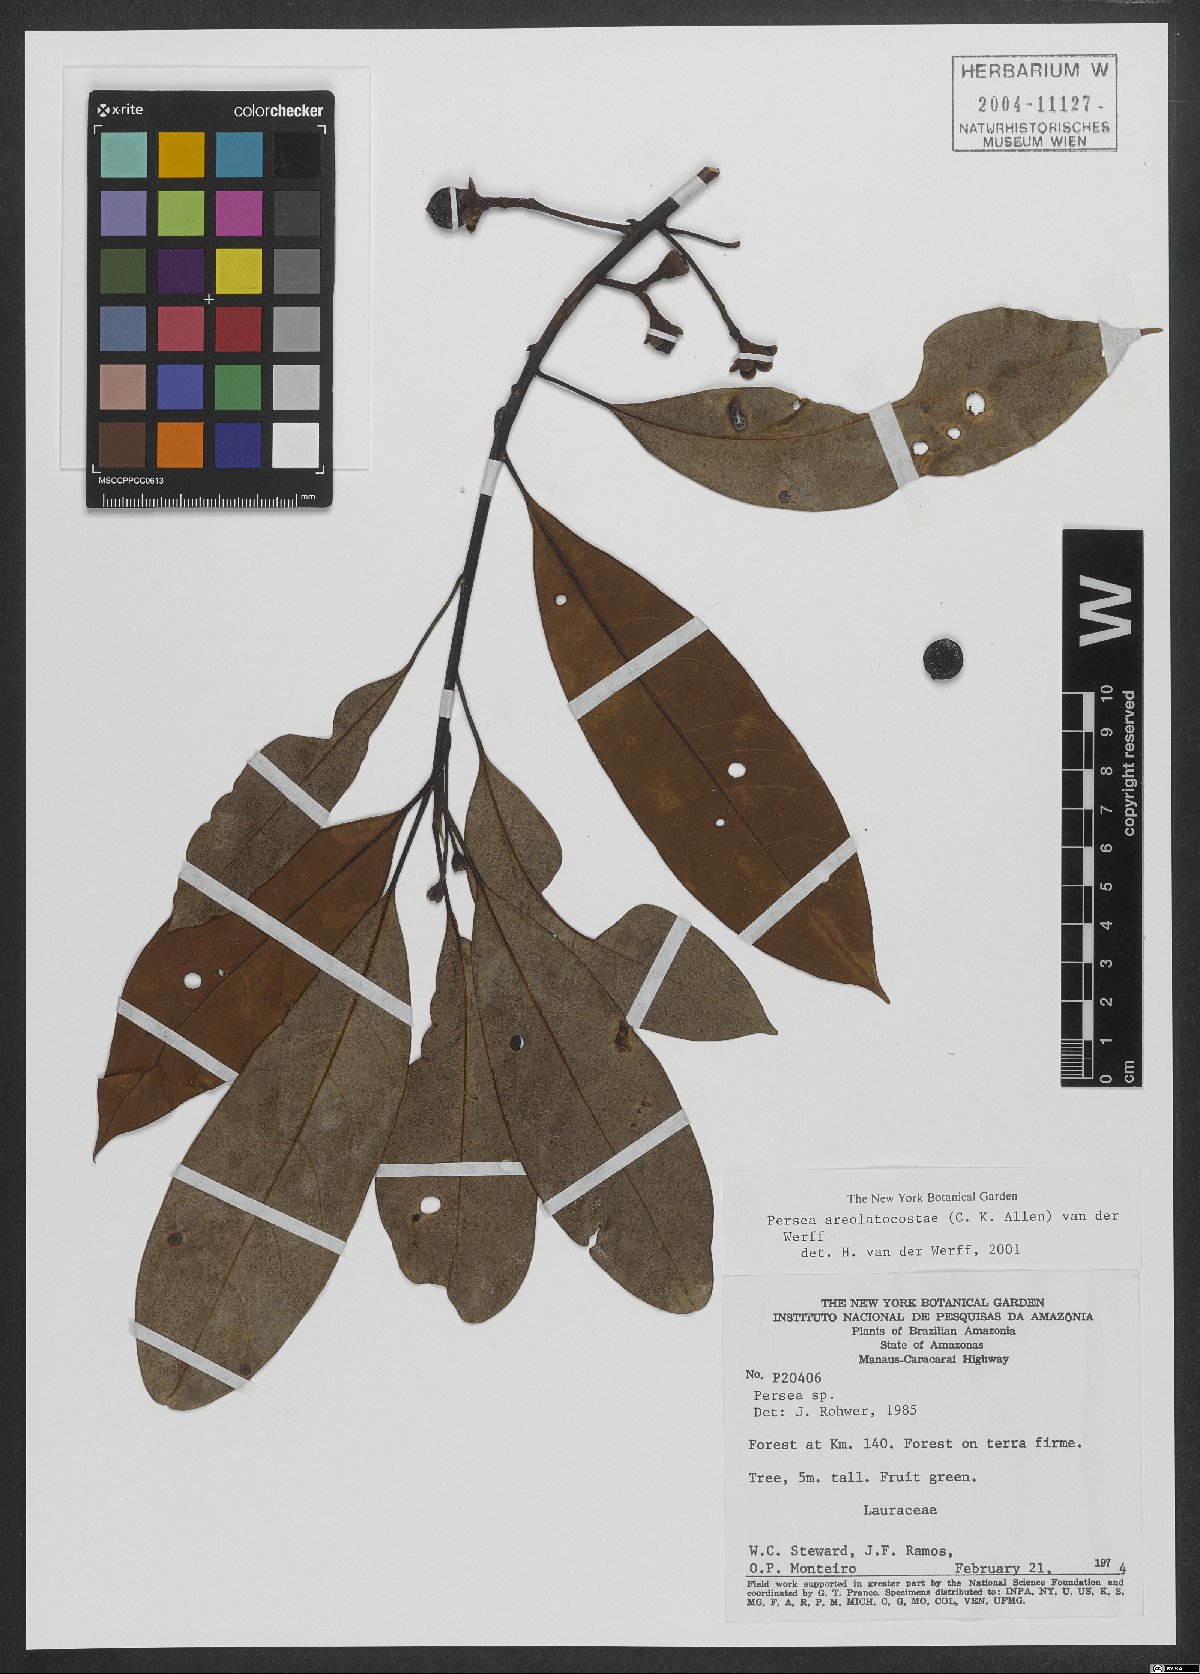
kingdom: Plantae
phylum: Tracheophyta
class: Magnoliopsida
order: Laurales
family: Lauraceae
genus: Persea
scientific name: Persea areolatocostae
